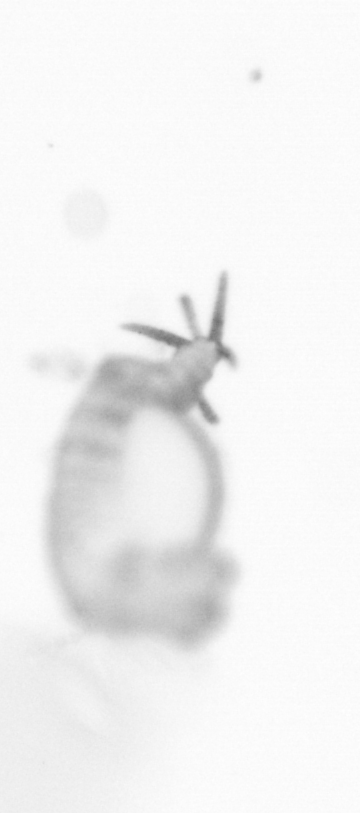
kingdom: Animalia
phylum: Annelida
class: Polychaeta
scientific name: Polychaeta
